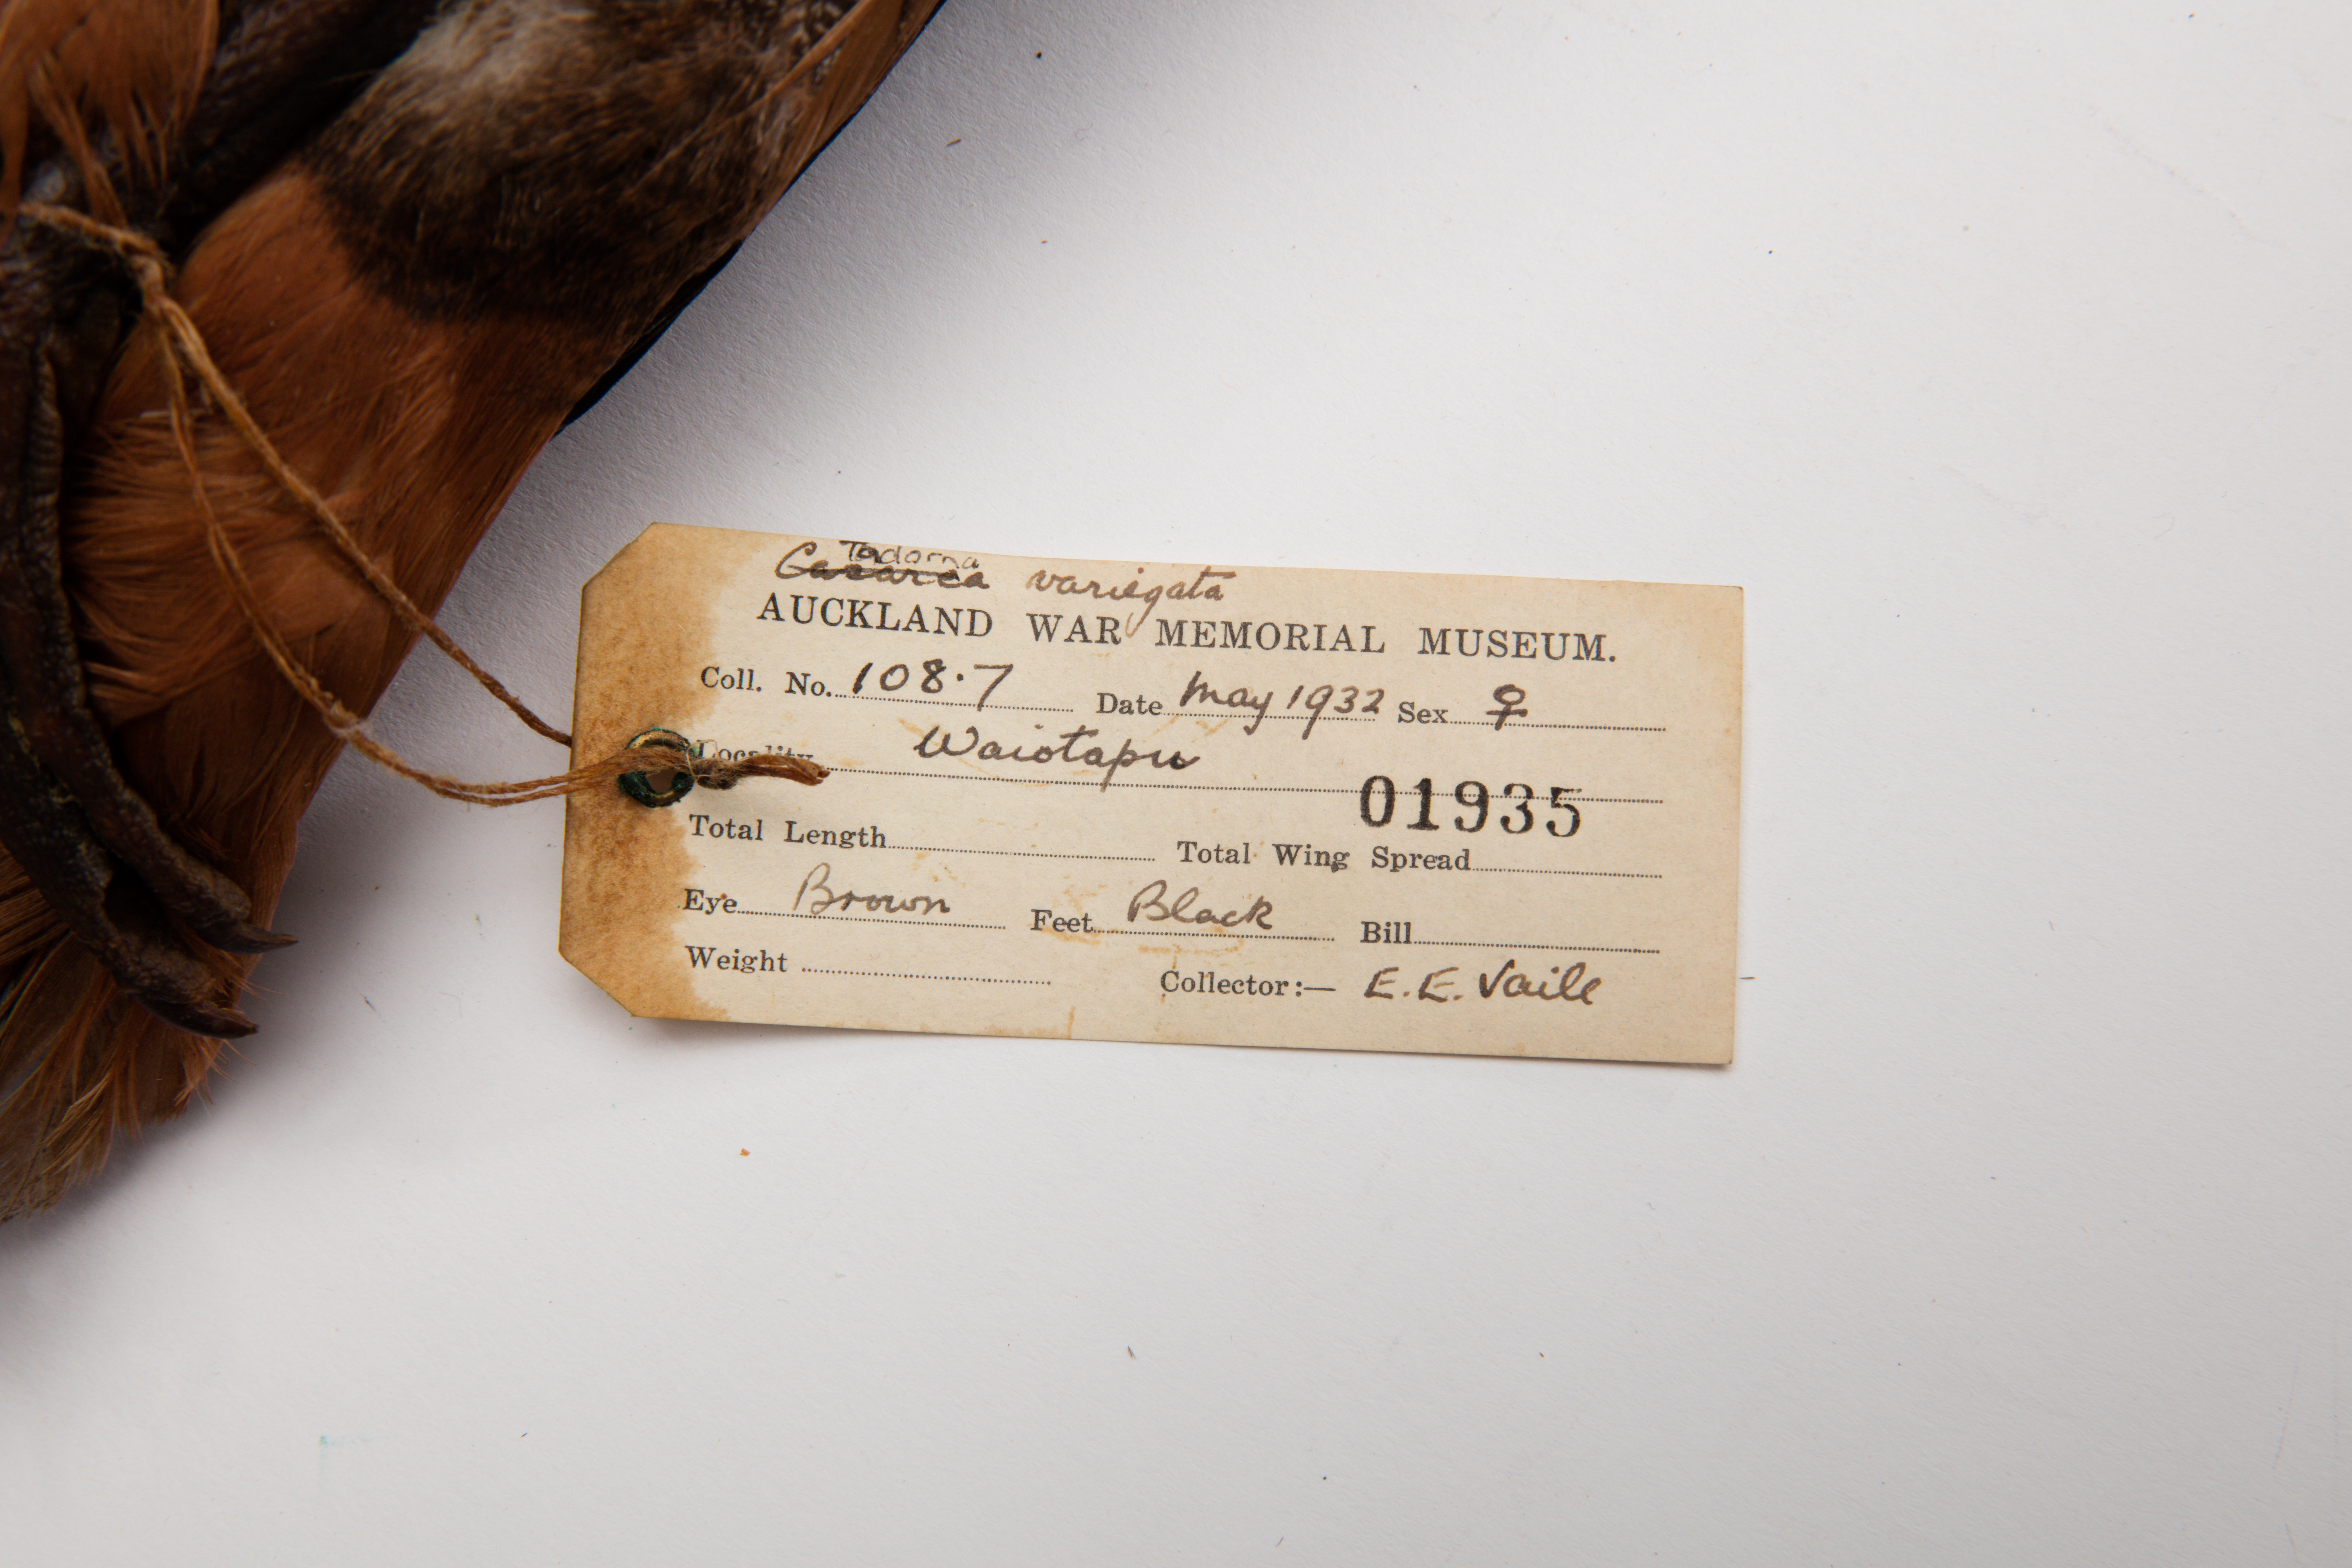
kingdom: Animalia
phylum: Chordata
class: Aves
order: Anseriformes
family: Anatidae
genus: Tadorna
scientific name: Tadorna variegata
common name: Paradise shelduck
